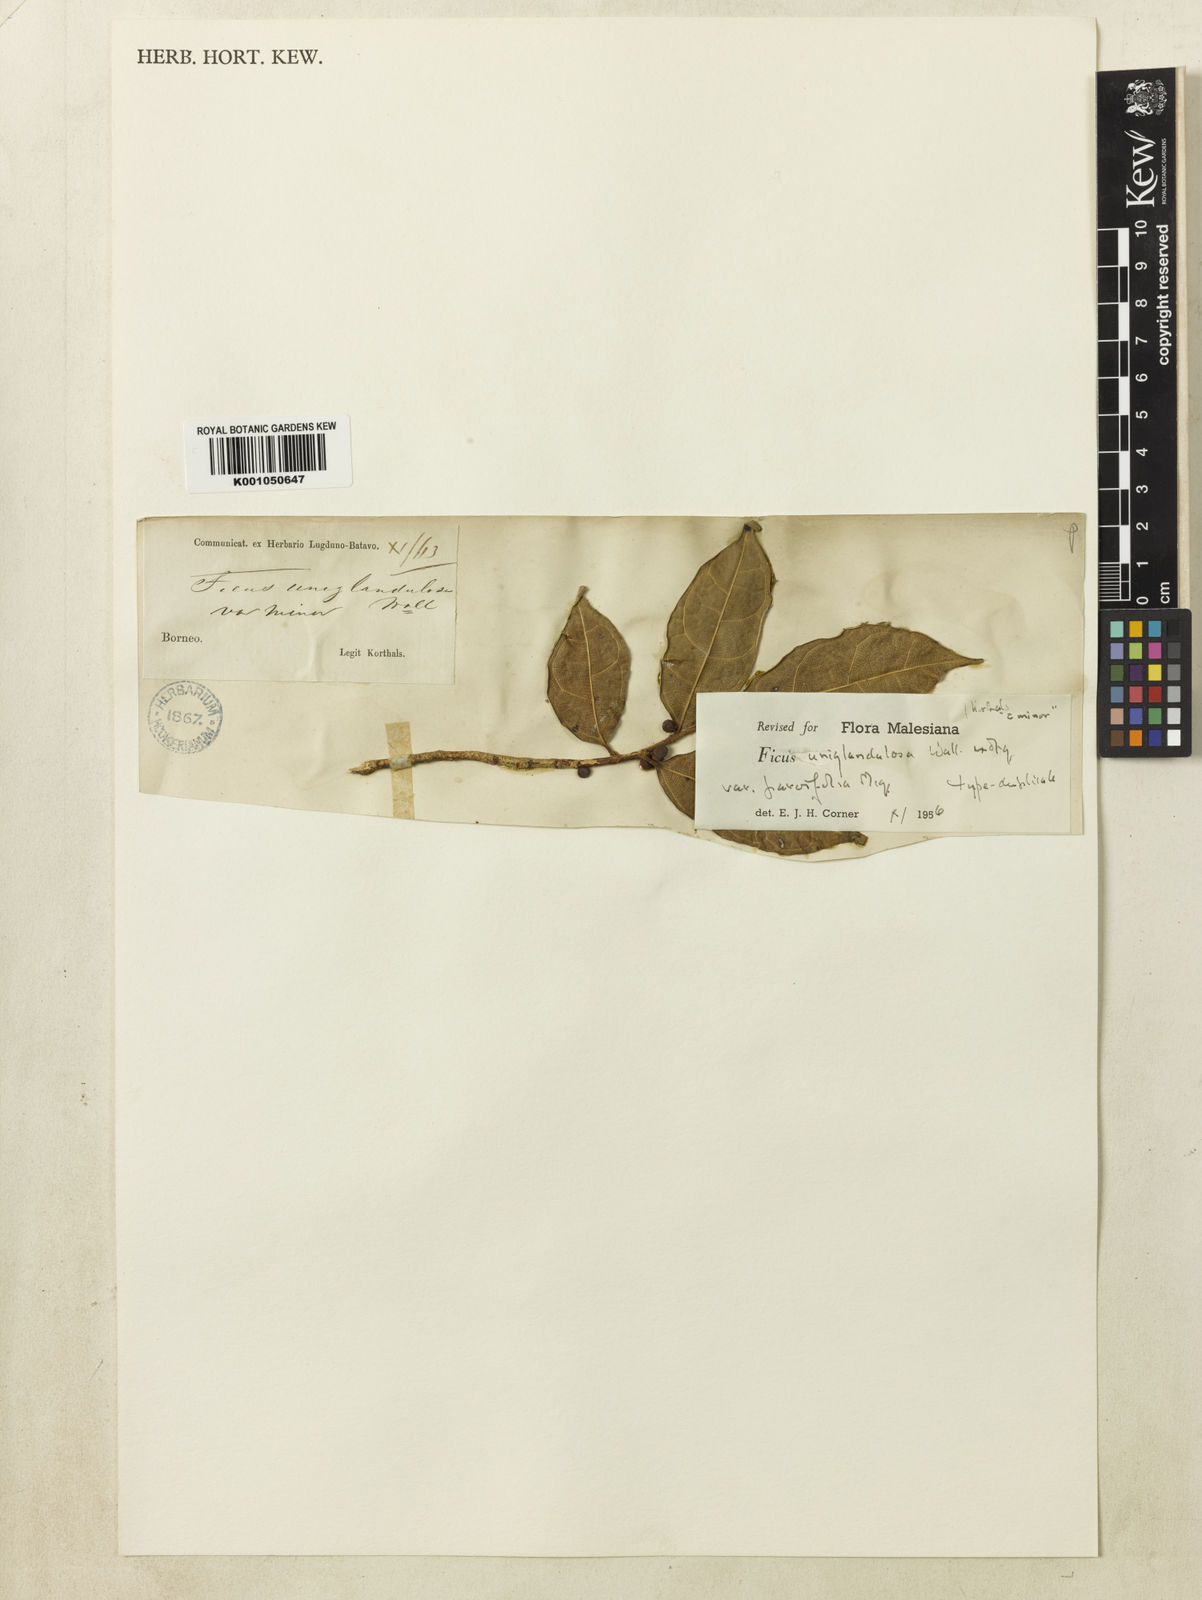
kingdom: Plantae
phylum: Tracheophyta
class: Magnoliopsida
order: Rosales
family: Moraceae
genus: Ficus
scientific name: Ficus uniglandulosa
